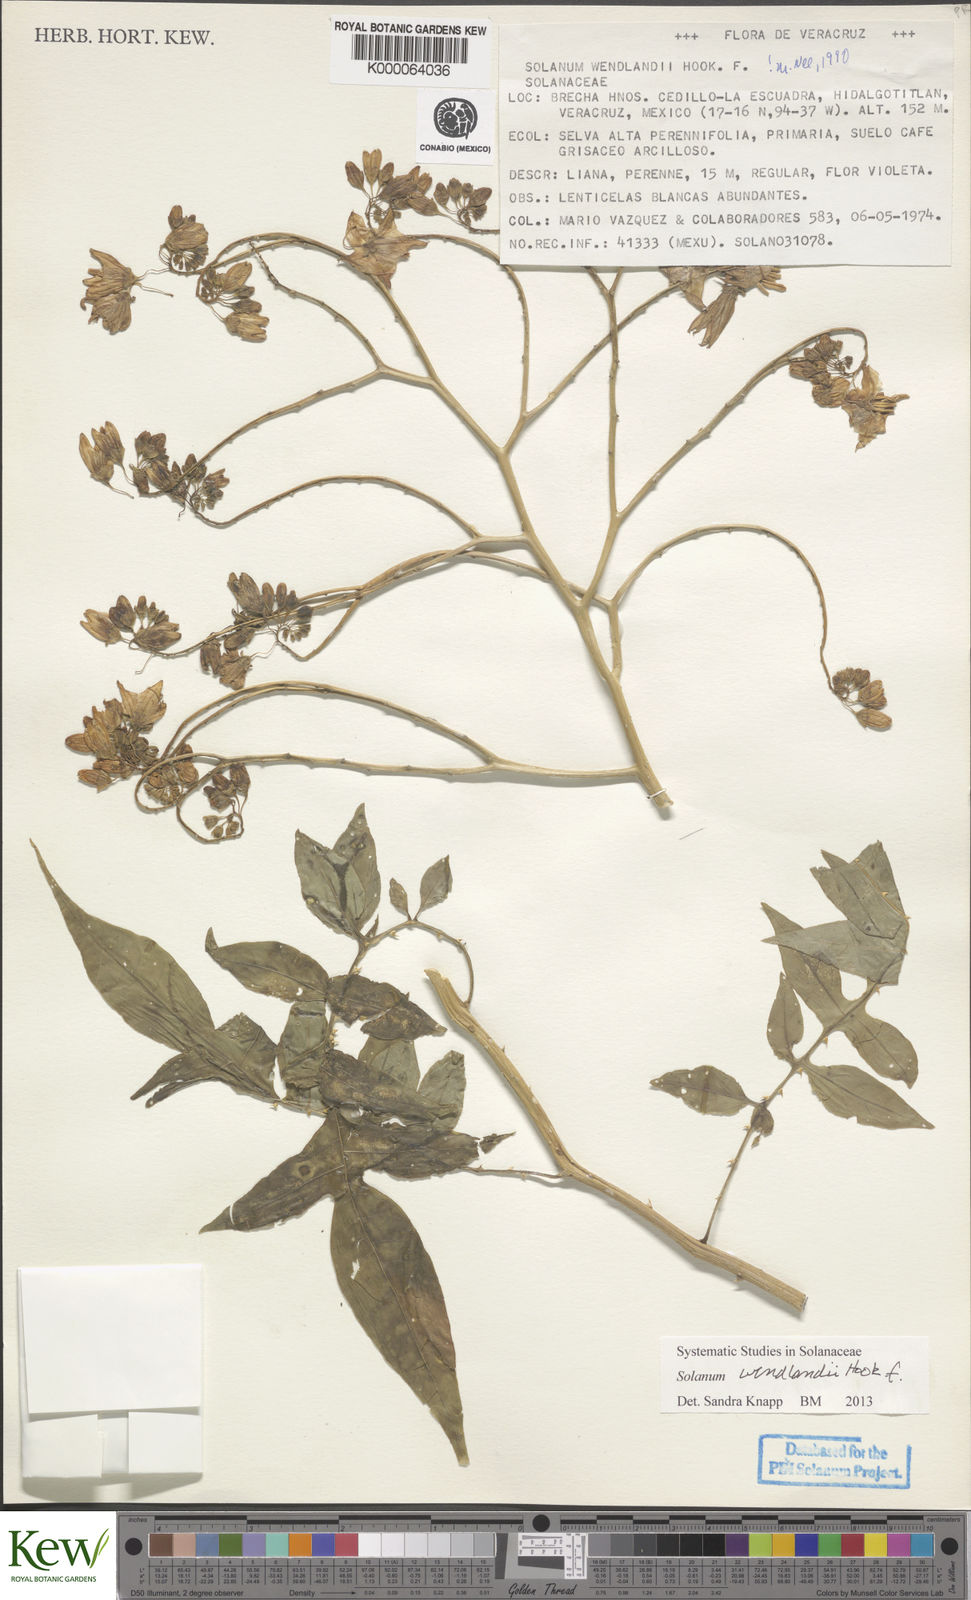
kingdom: Plantae
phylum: Tracheophyta
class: Magnoliopsida
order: Solanales
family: Solanaceae
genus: Solanum
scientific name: Solanum wendlandii
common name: Costa rican nightshade
